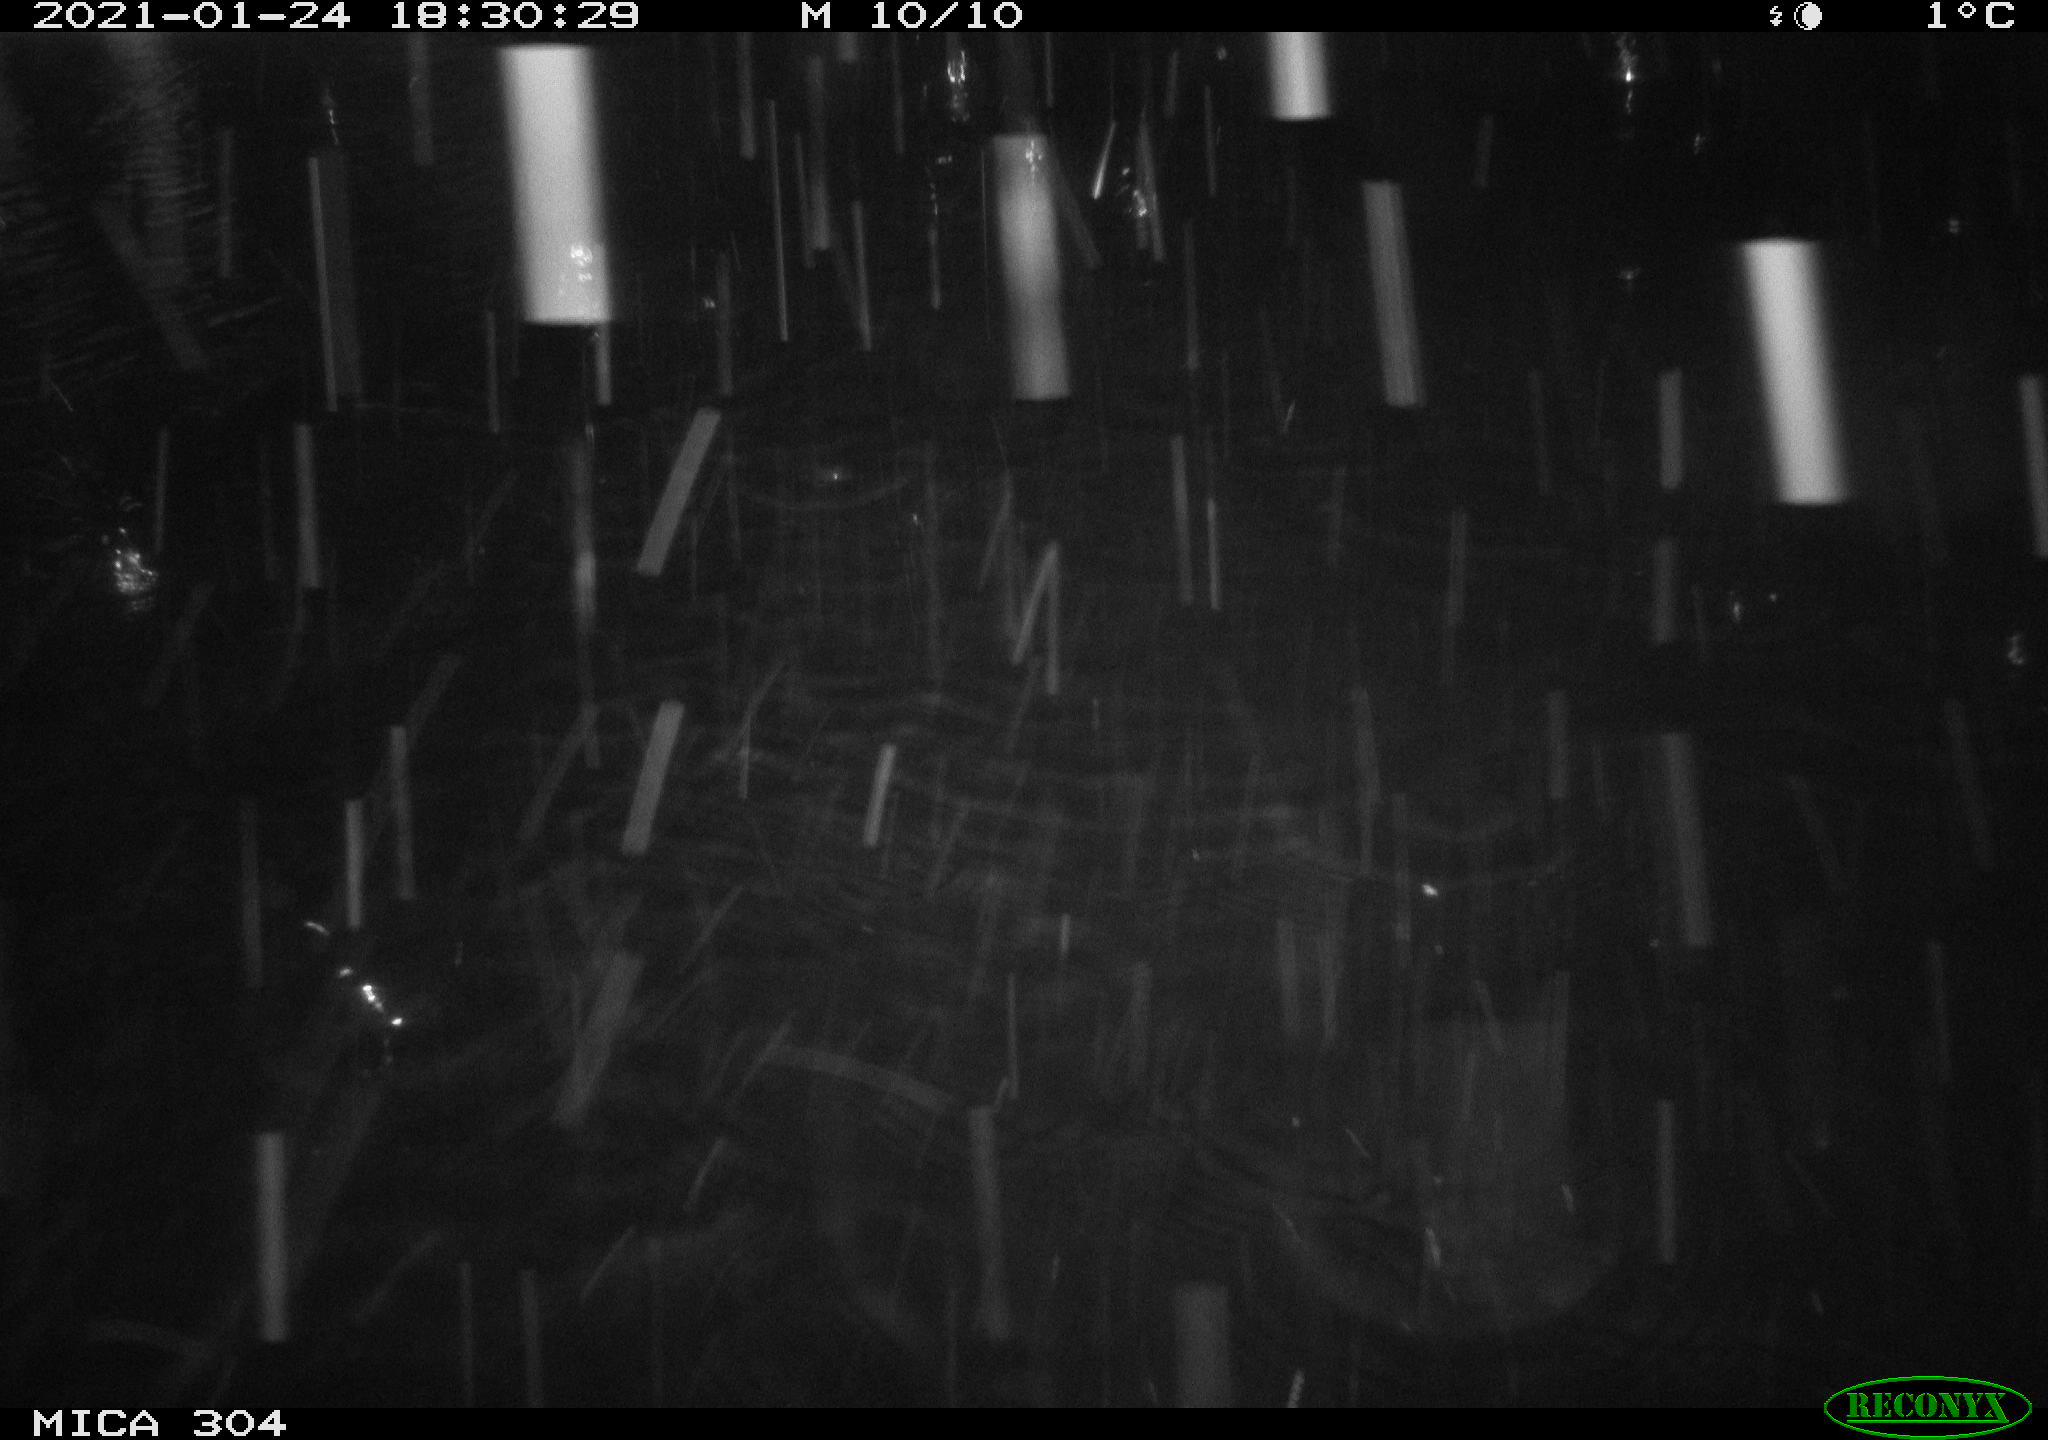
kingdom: Animalia
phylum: Chordata
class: Aves
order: Gruiformes
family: Rallidae
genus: Fulica
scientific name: Fulica atra
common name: Eurasian coot
